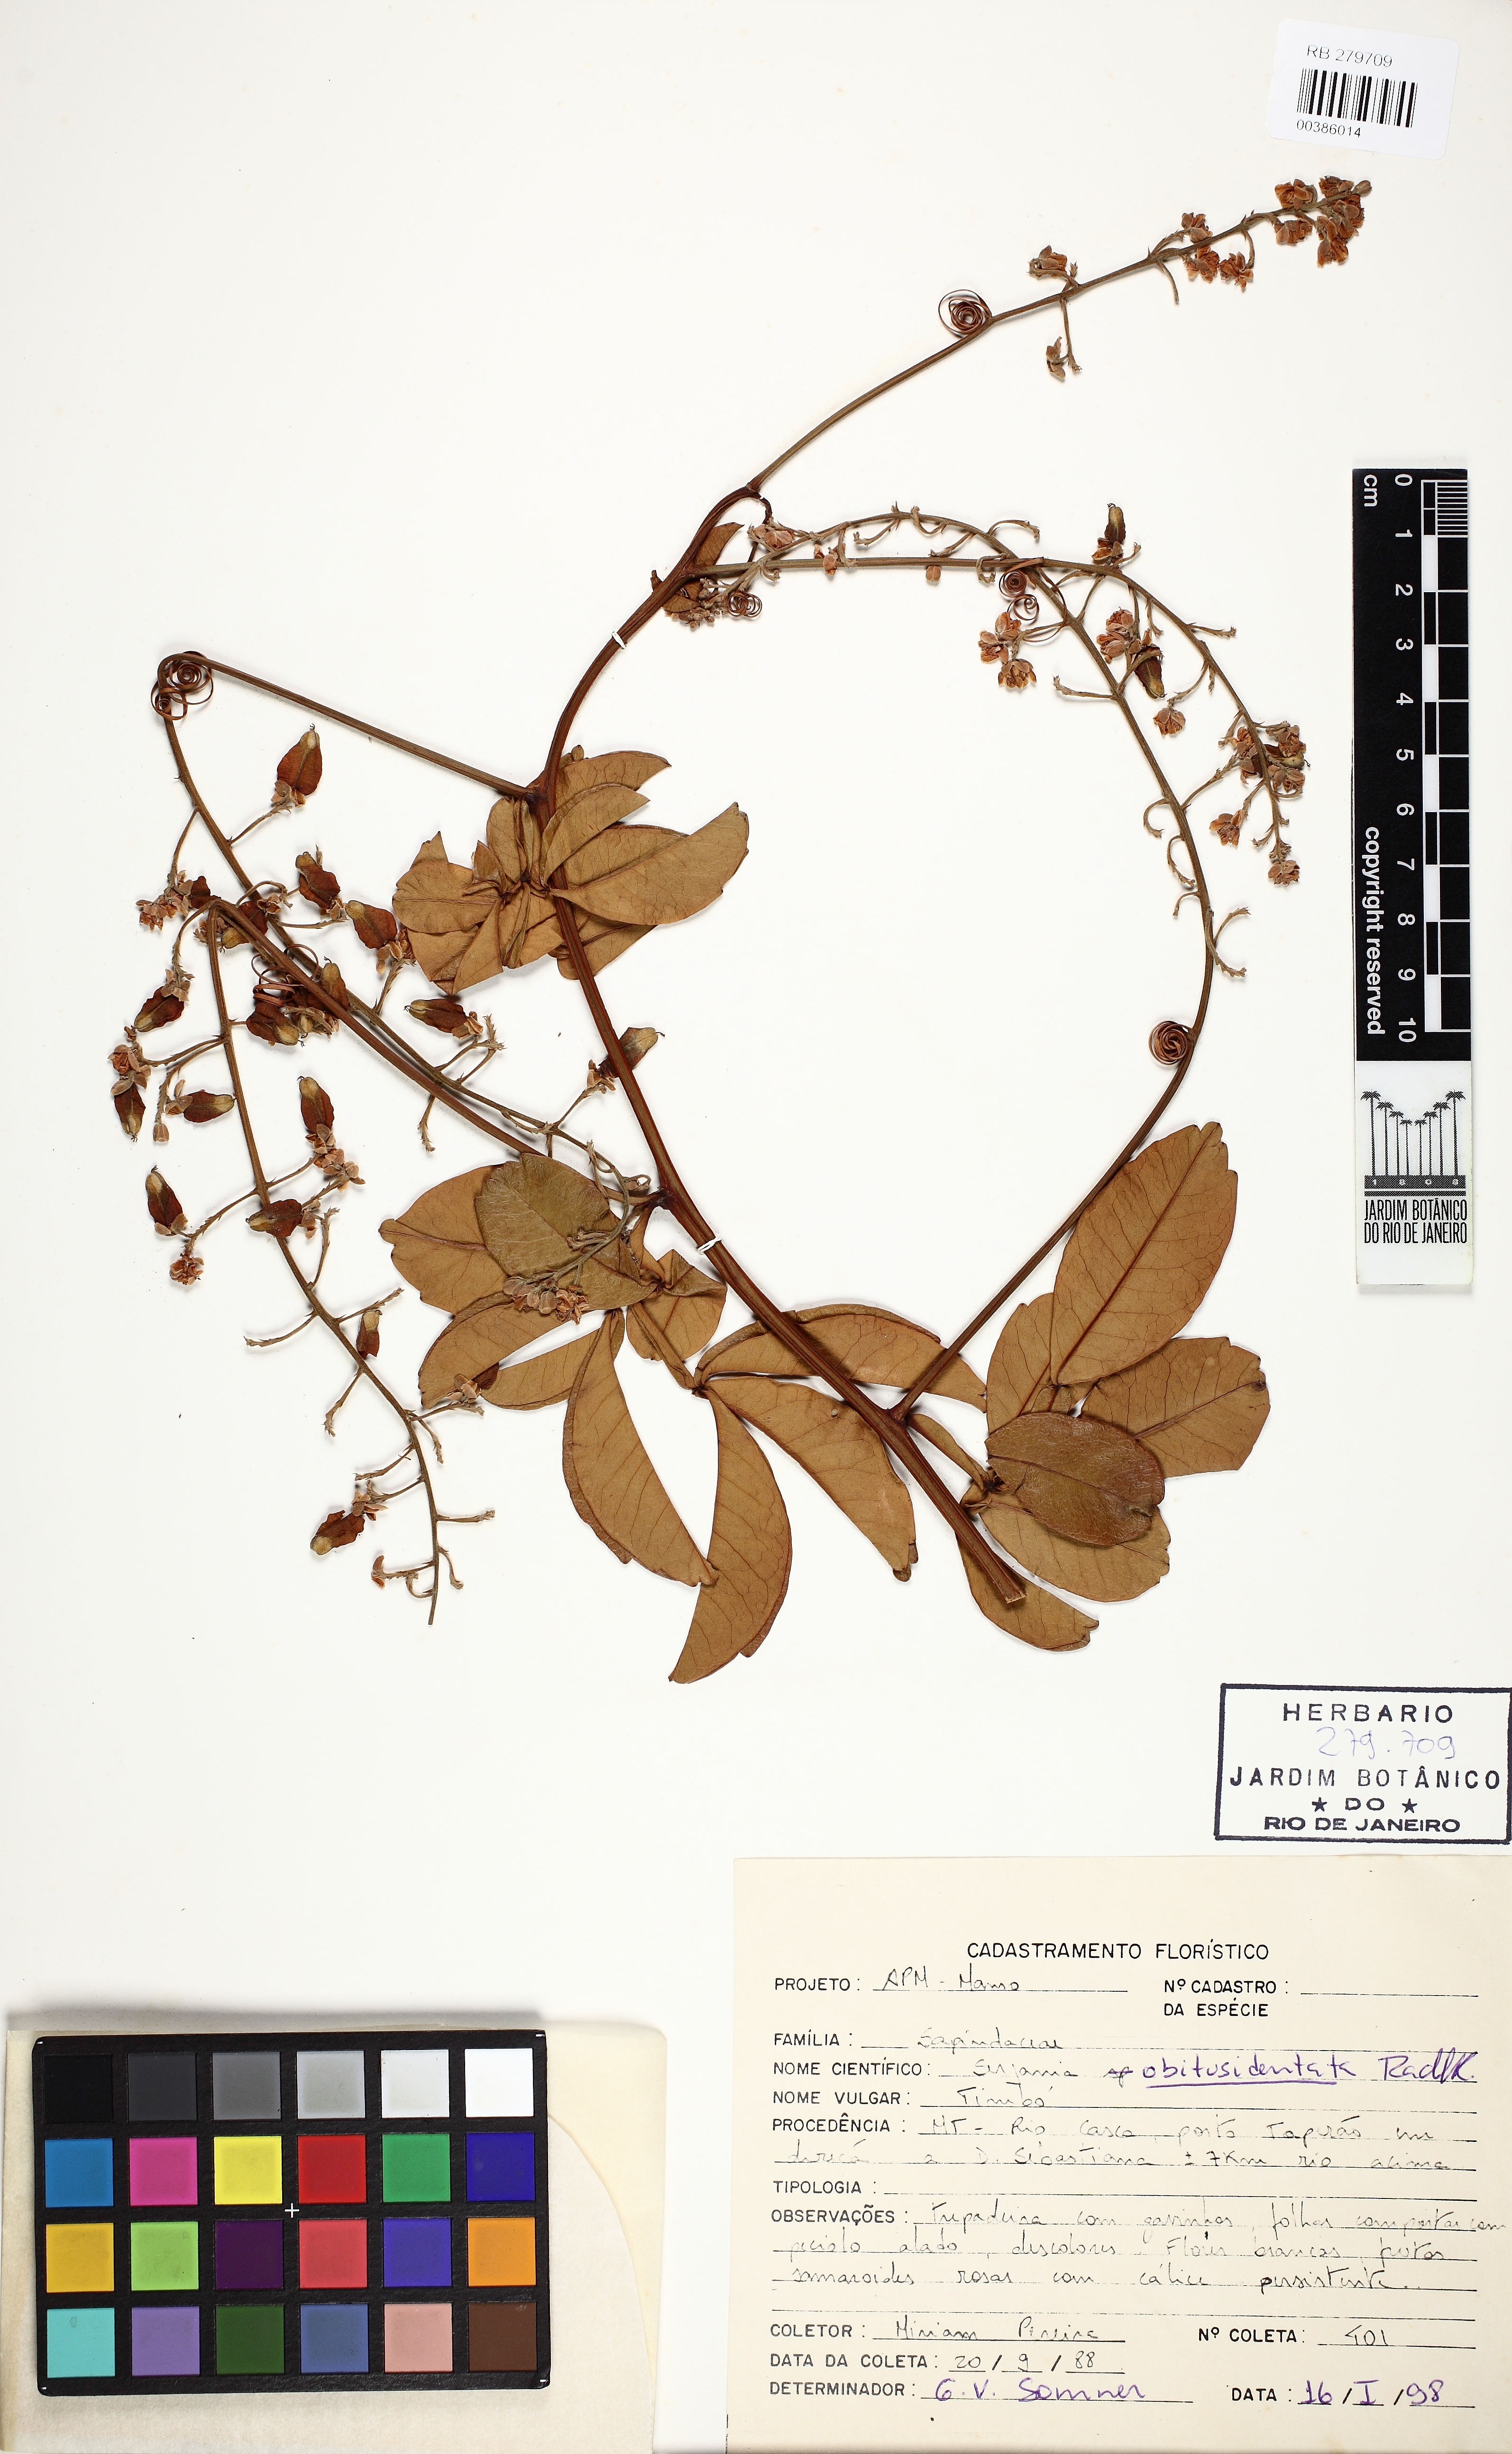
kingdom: Plantae
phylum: Tracheophyta
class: Magnoliopsida
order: Sapindales
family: Sapindaceae
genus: Serjania
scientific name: Serjania obtusidentata
